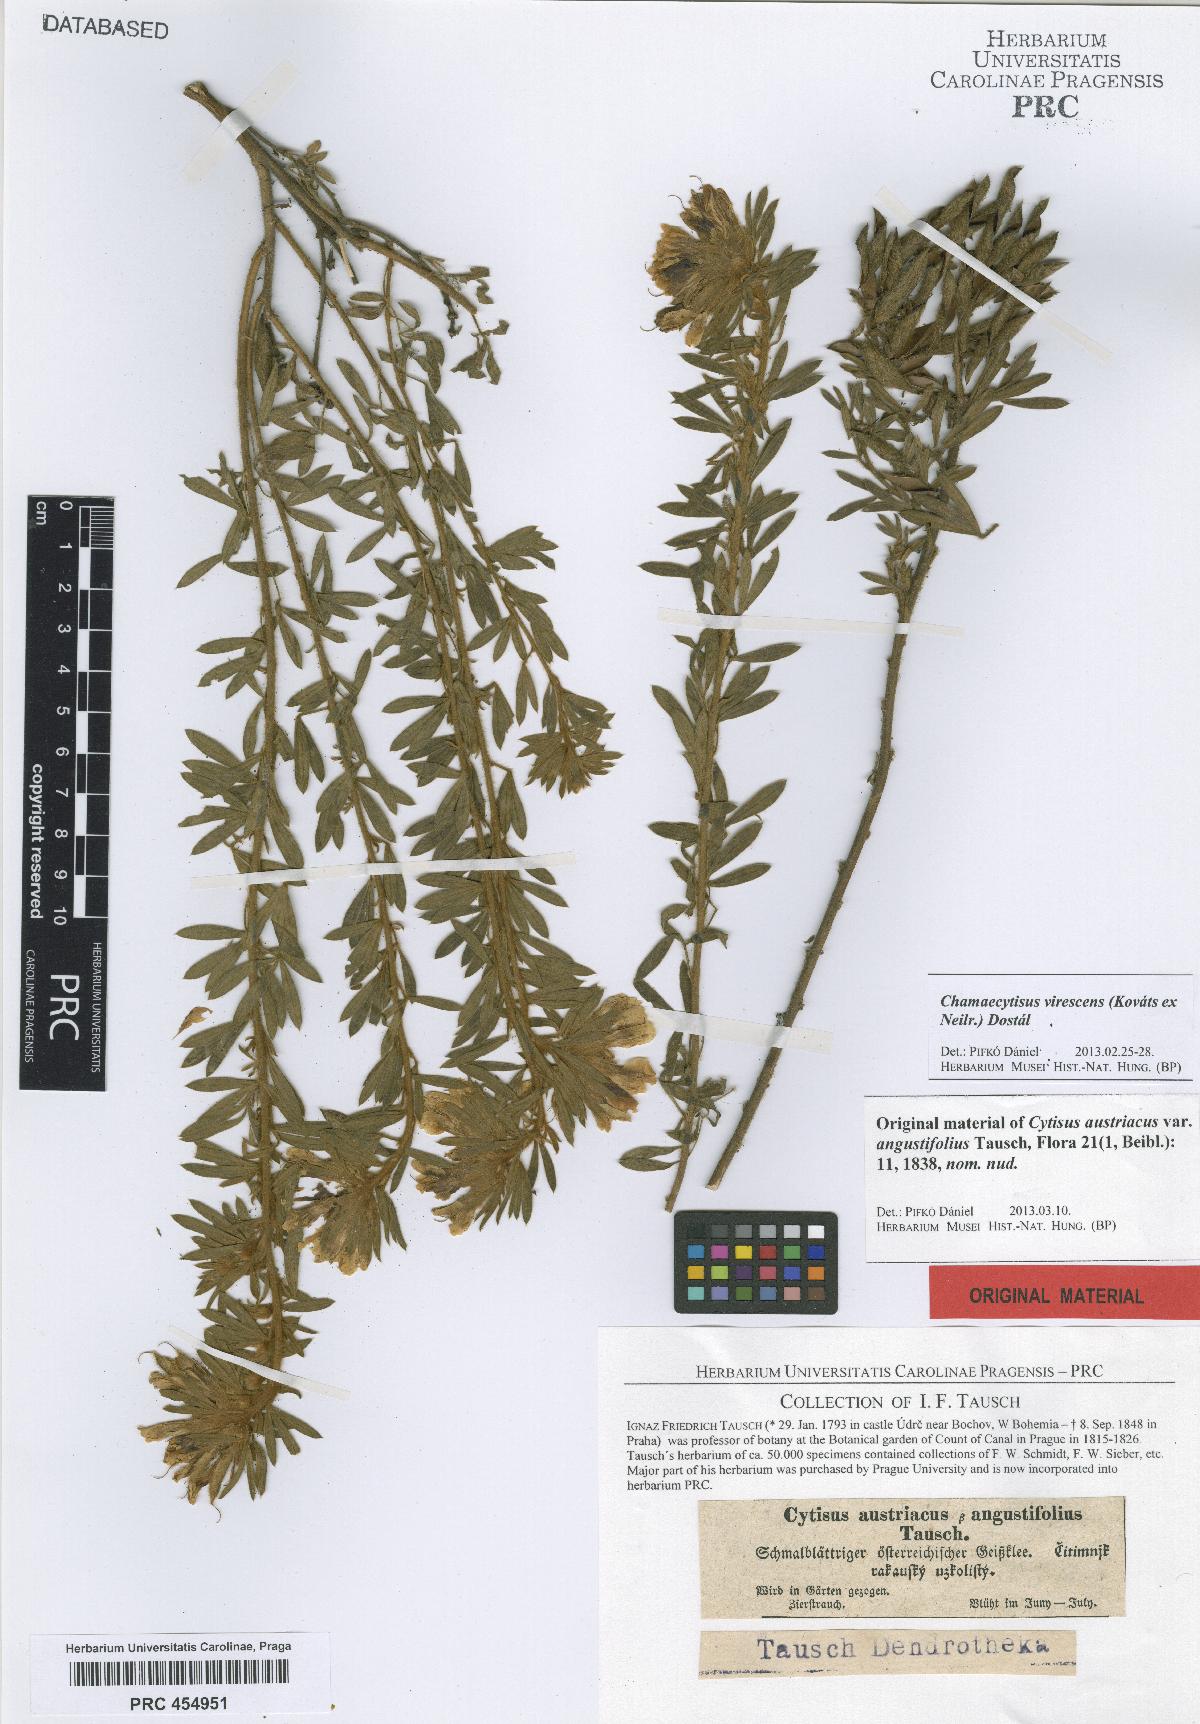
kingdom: Plantae
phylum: Tracheophyta
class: Magnoliopsida
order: Fabales
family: Fabaceae
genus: Chamaecytisus
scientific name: Chamaecytisus austriacus
